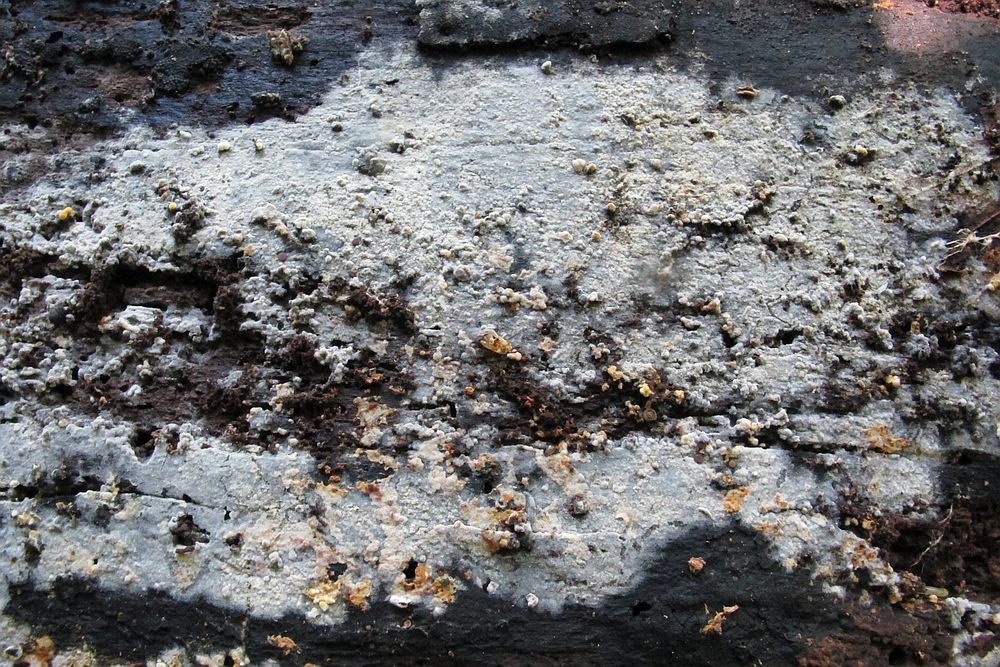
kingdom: Fungi
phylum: Basidiomycota
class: Agaricomycetes
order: Cantharellales
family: Botryobasidiaceae
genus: Botryobasidium
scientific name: Botryobasidium aureum
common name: gylden spindhinde
